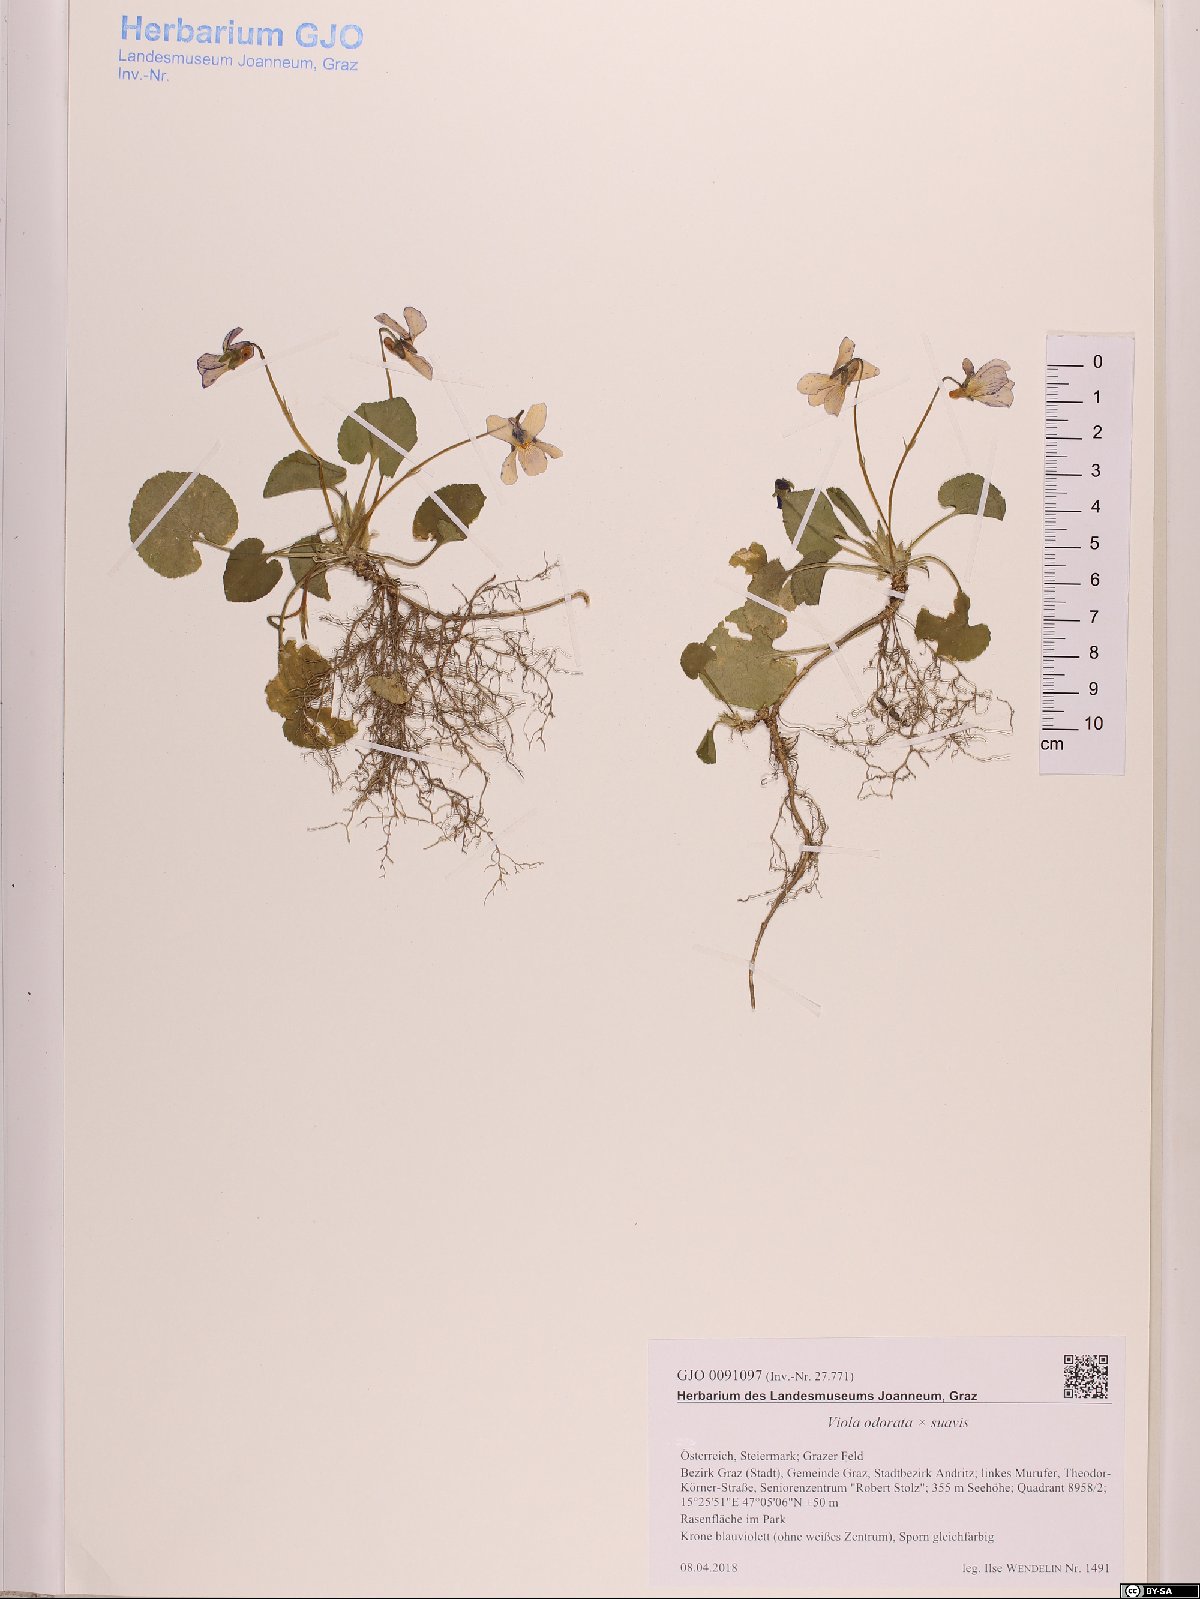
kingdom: Plantae
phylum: Tracheophyta
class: Magnoliopsida
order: Malpighiales
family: Violaceae
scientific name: Violaceae
